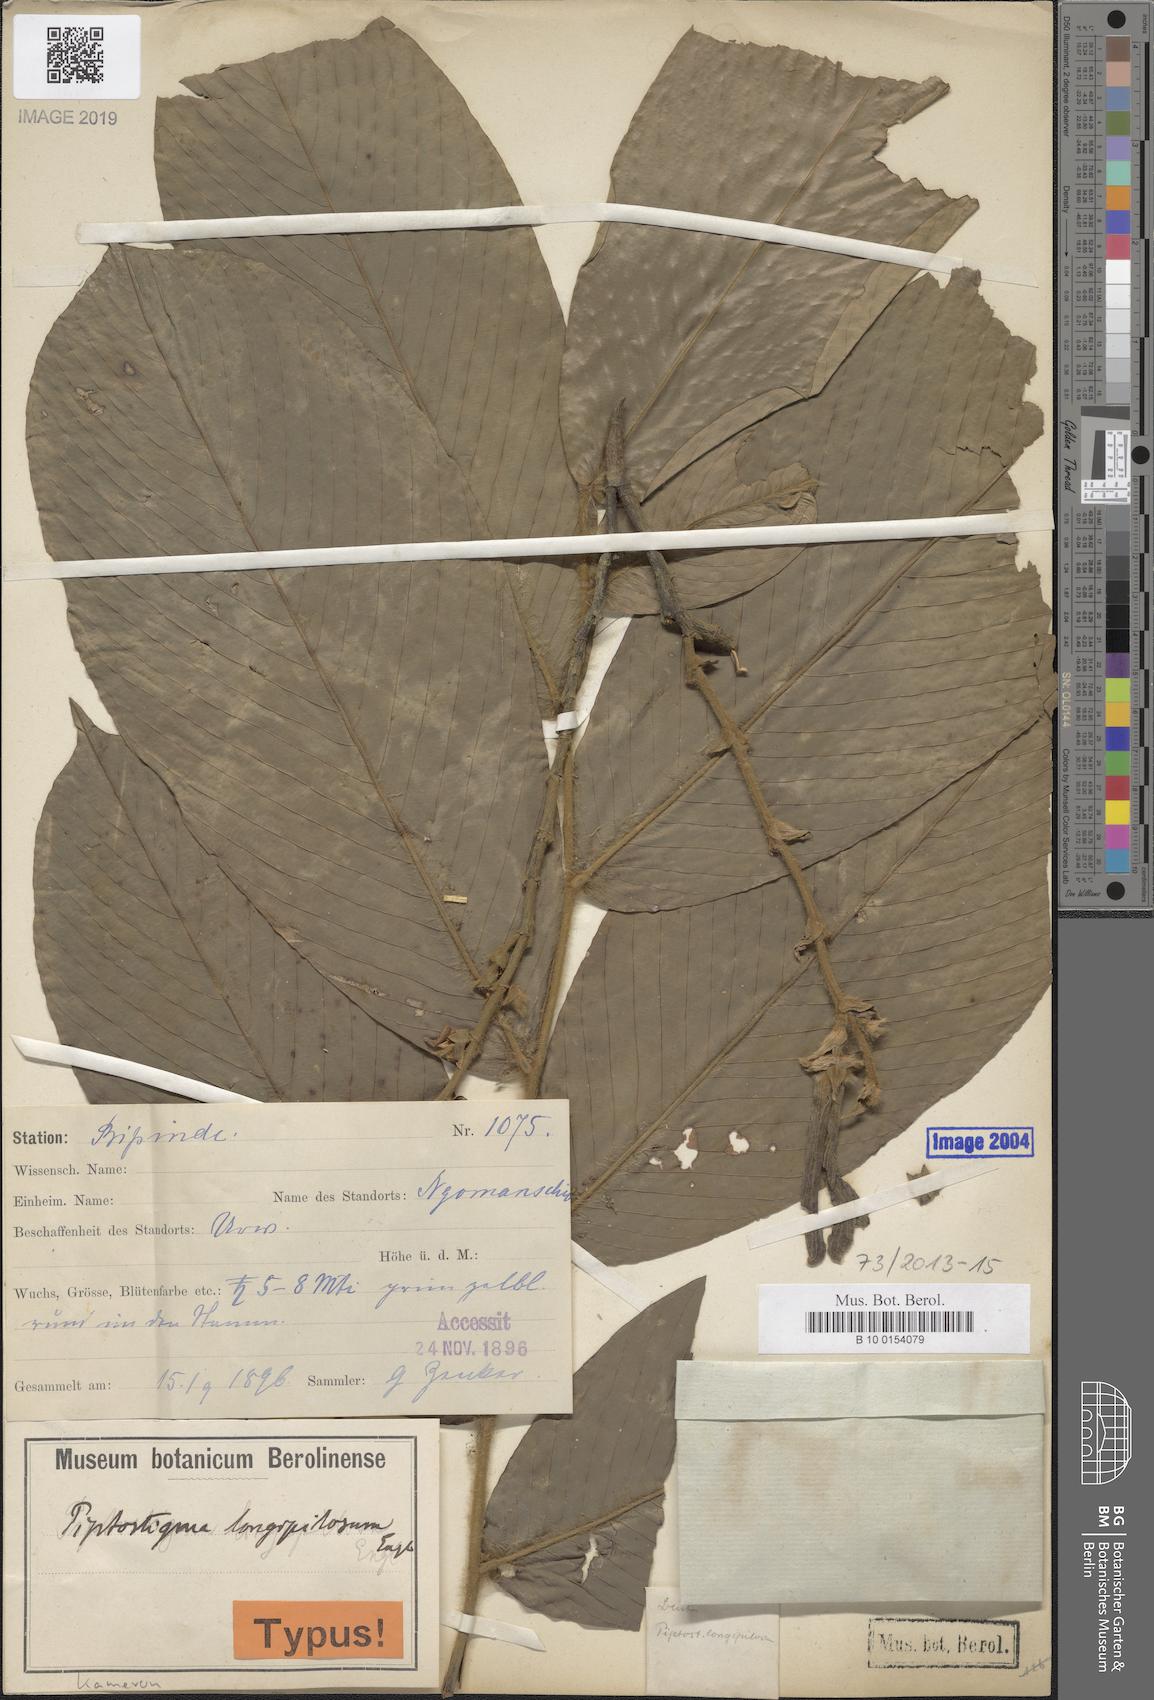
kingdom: Plantae
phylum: Tracheophyta
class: Magnoliopsida
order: Magnoliales
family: Annonaceae
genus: Piptostigma
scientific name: Piptostigma longepilosum
